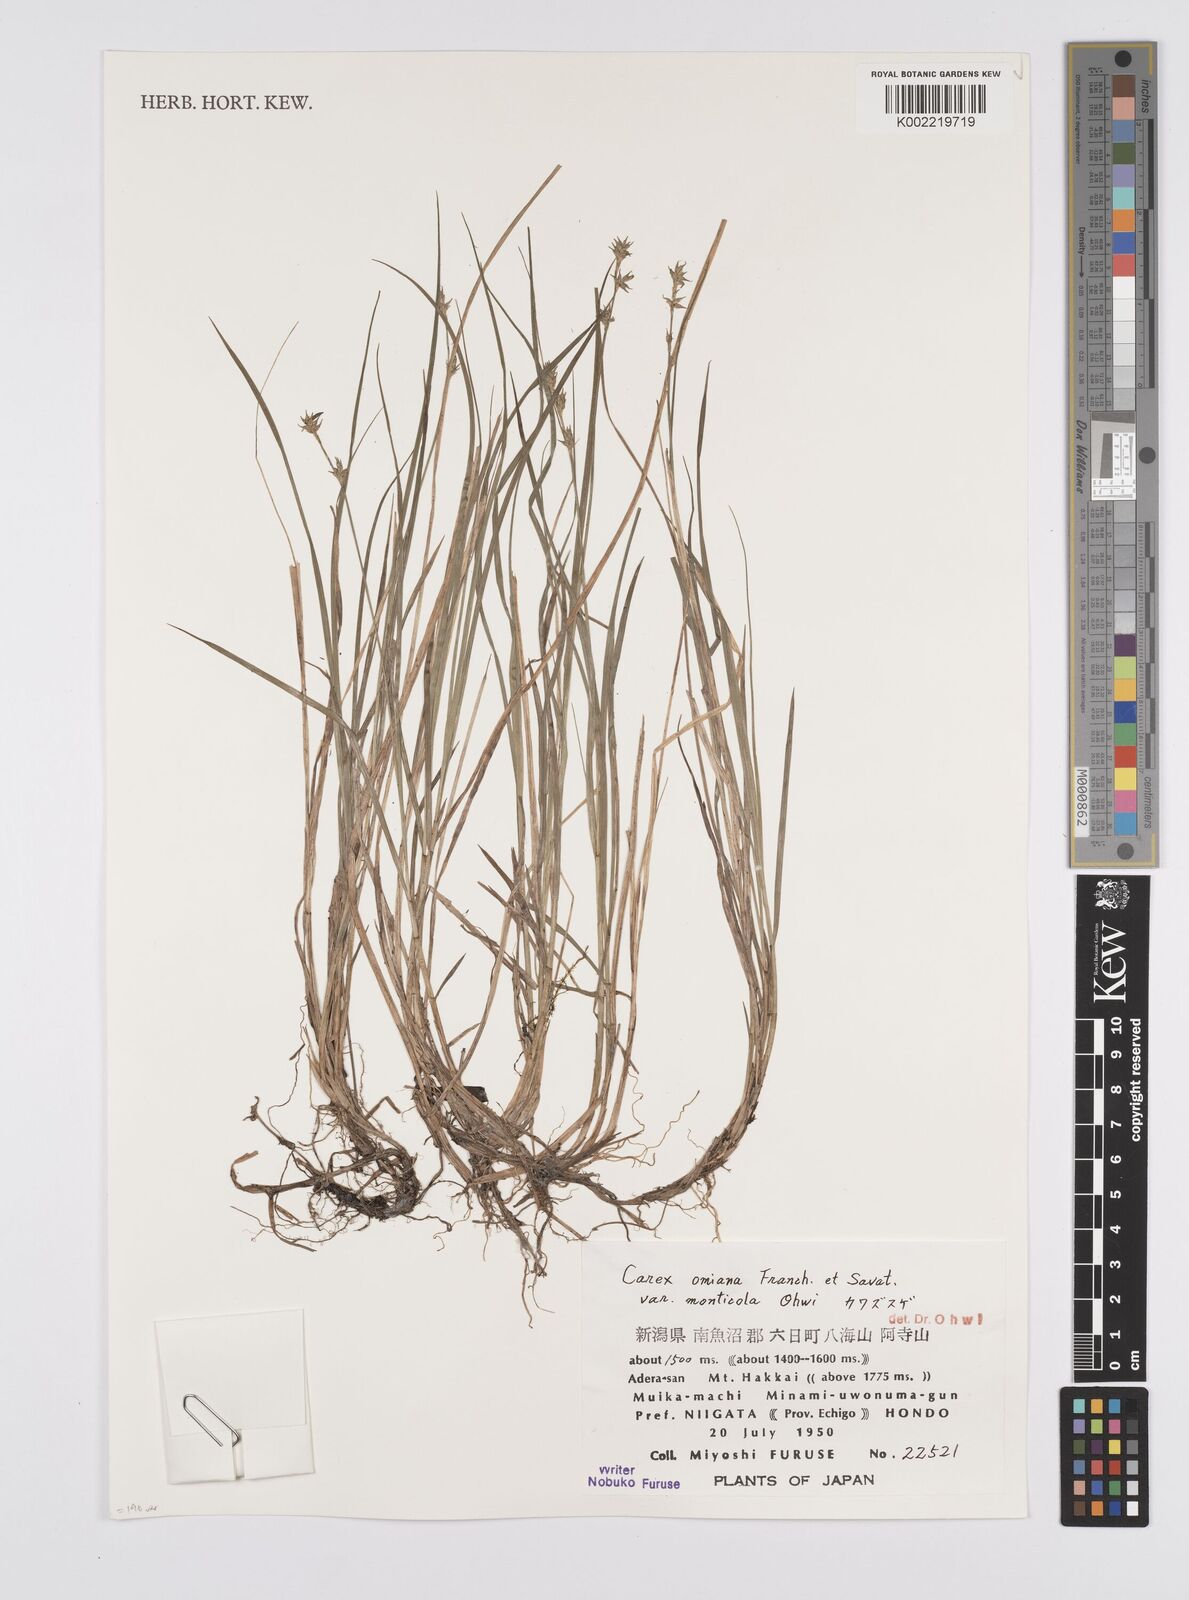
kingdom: Plantae
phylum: Tracheophyta
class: Liliopsida
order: Poales
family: Cyperaceae
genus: Carex
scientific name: Carex omiana
